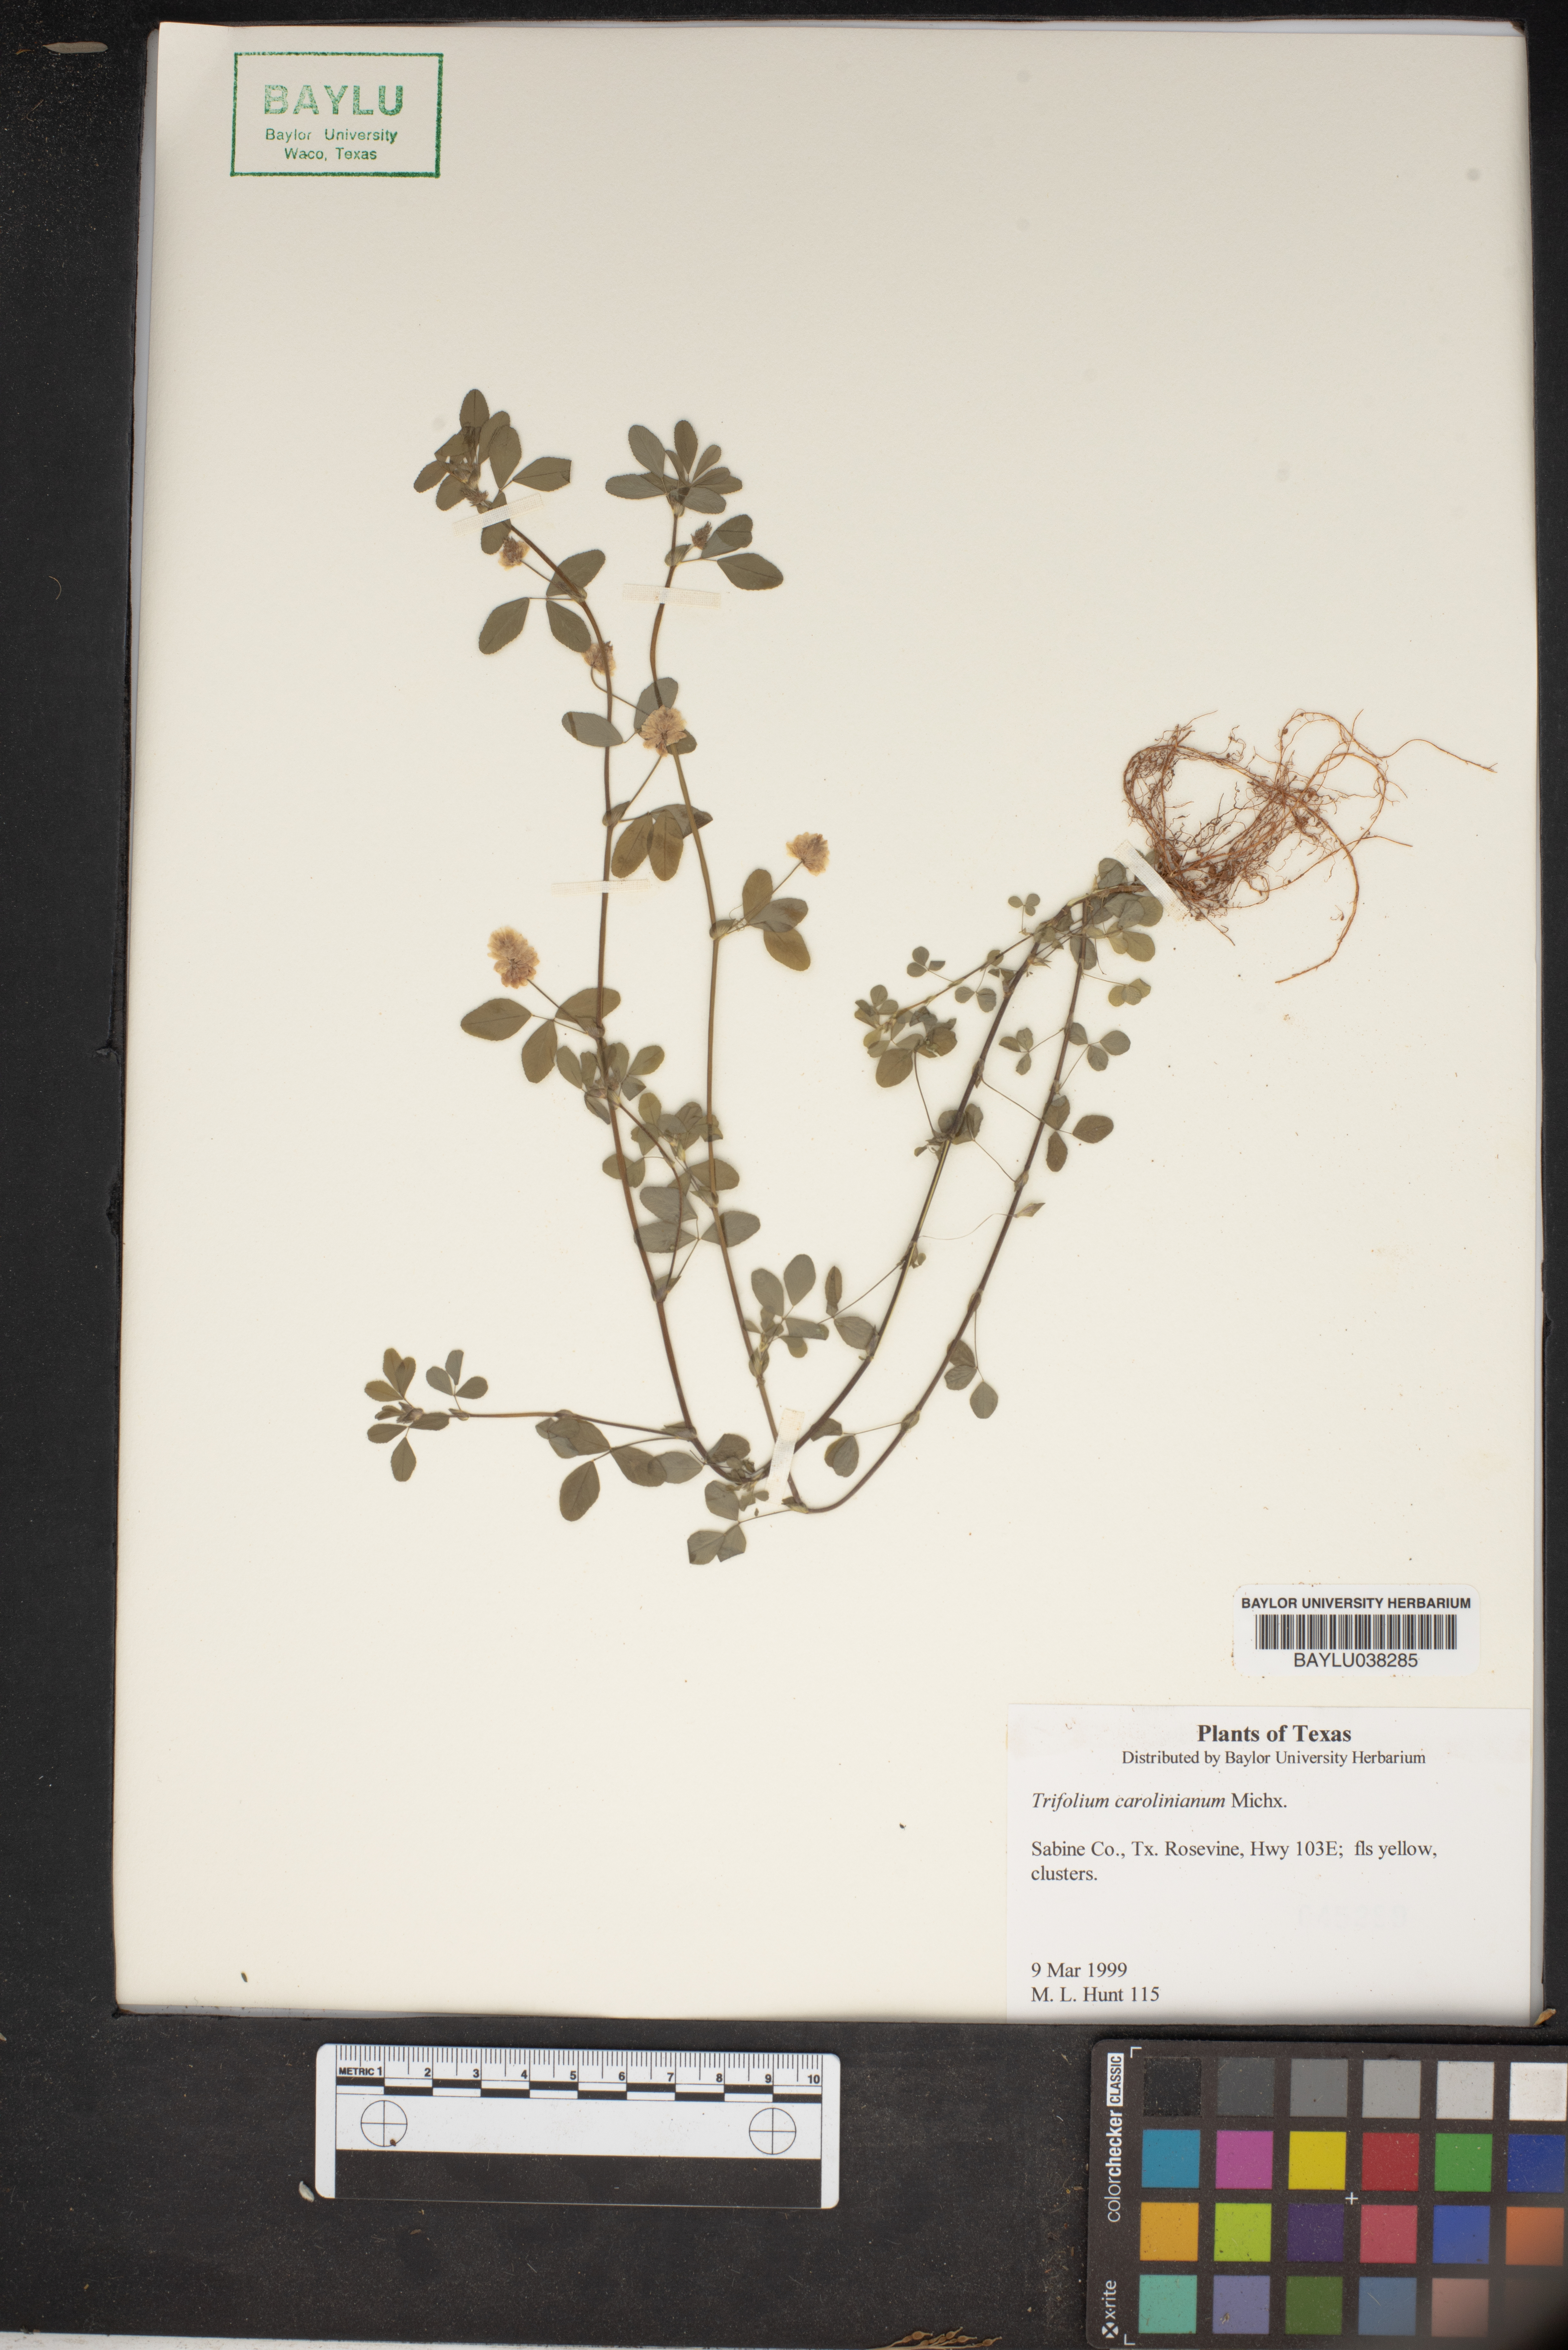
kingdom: Plantae
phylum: Tracheophyta
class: Magnoliopsida
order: Fabales
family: Fabaceae
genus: Trifolium
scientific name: Trifolium carolinianum
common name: Wild white clover
